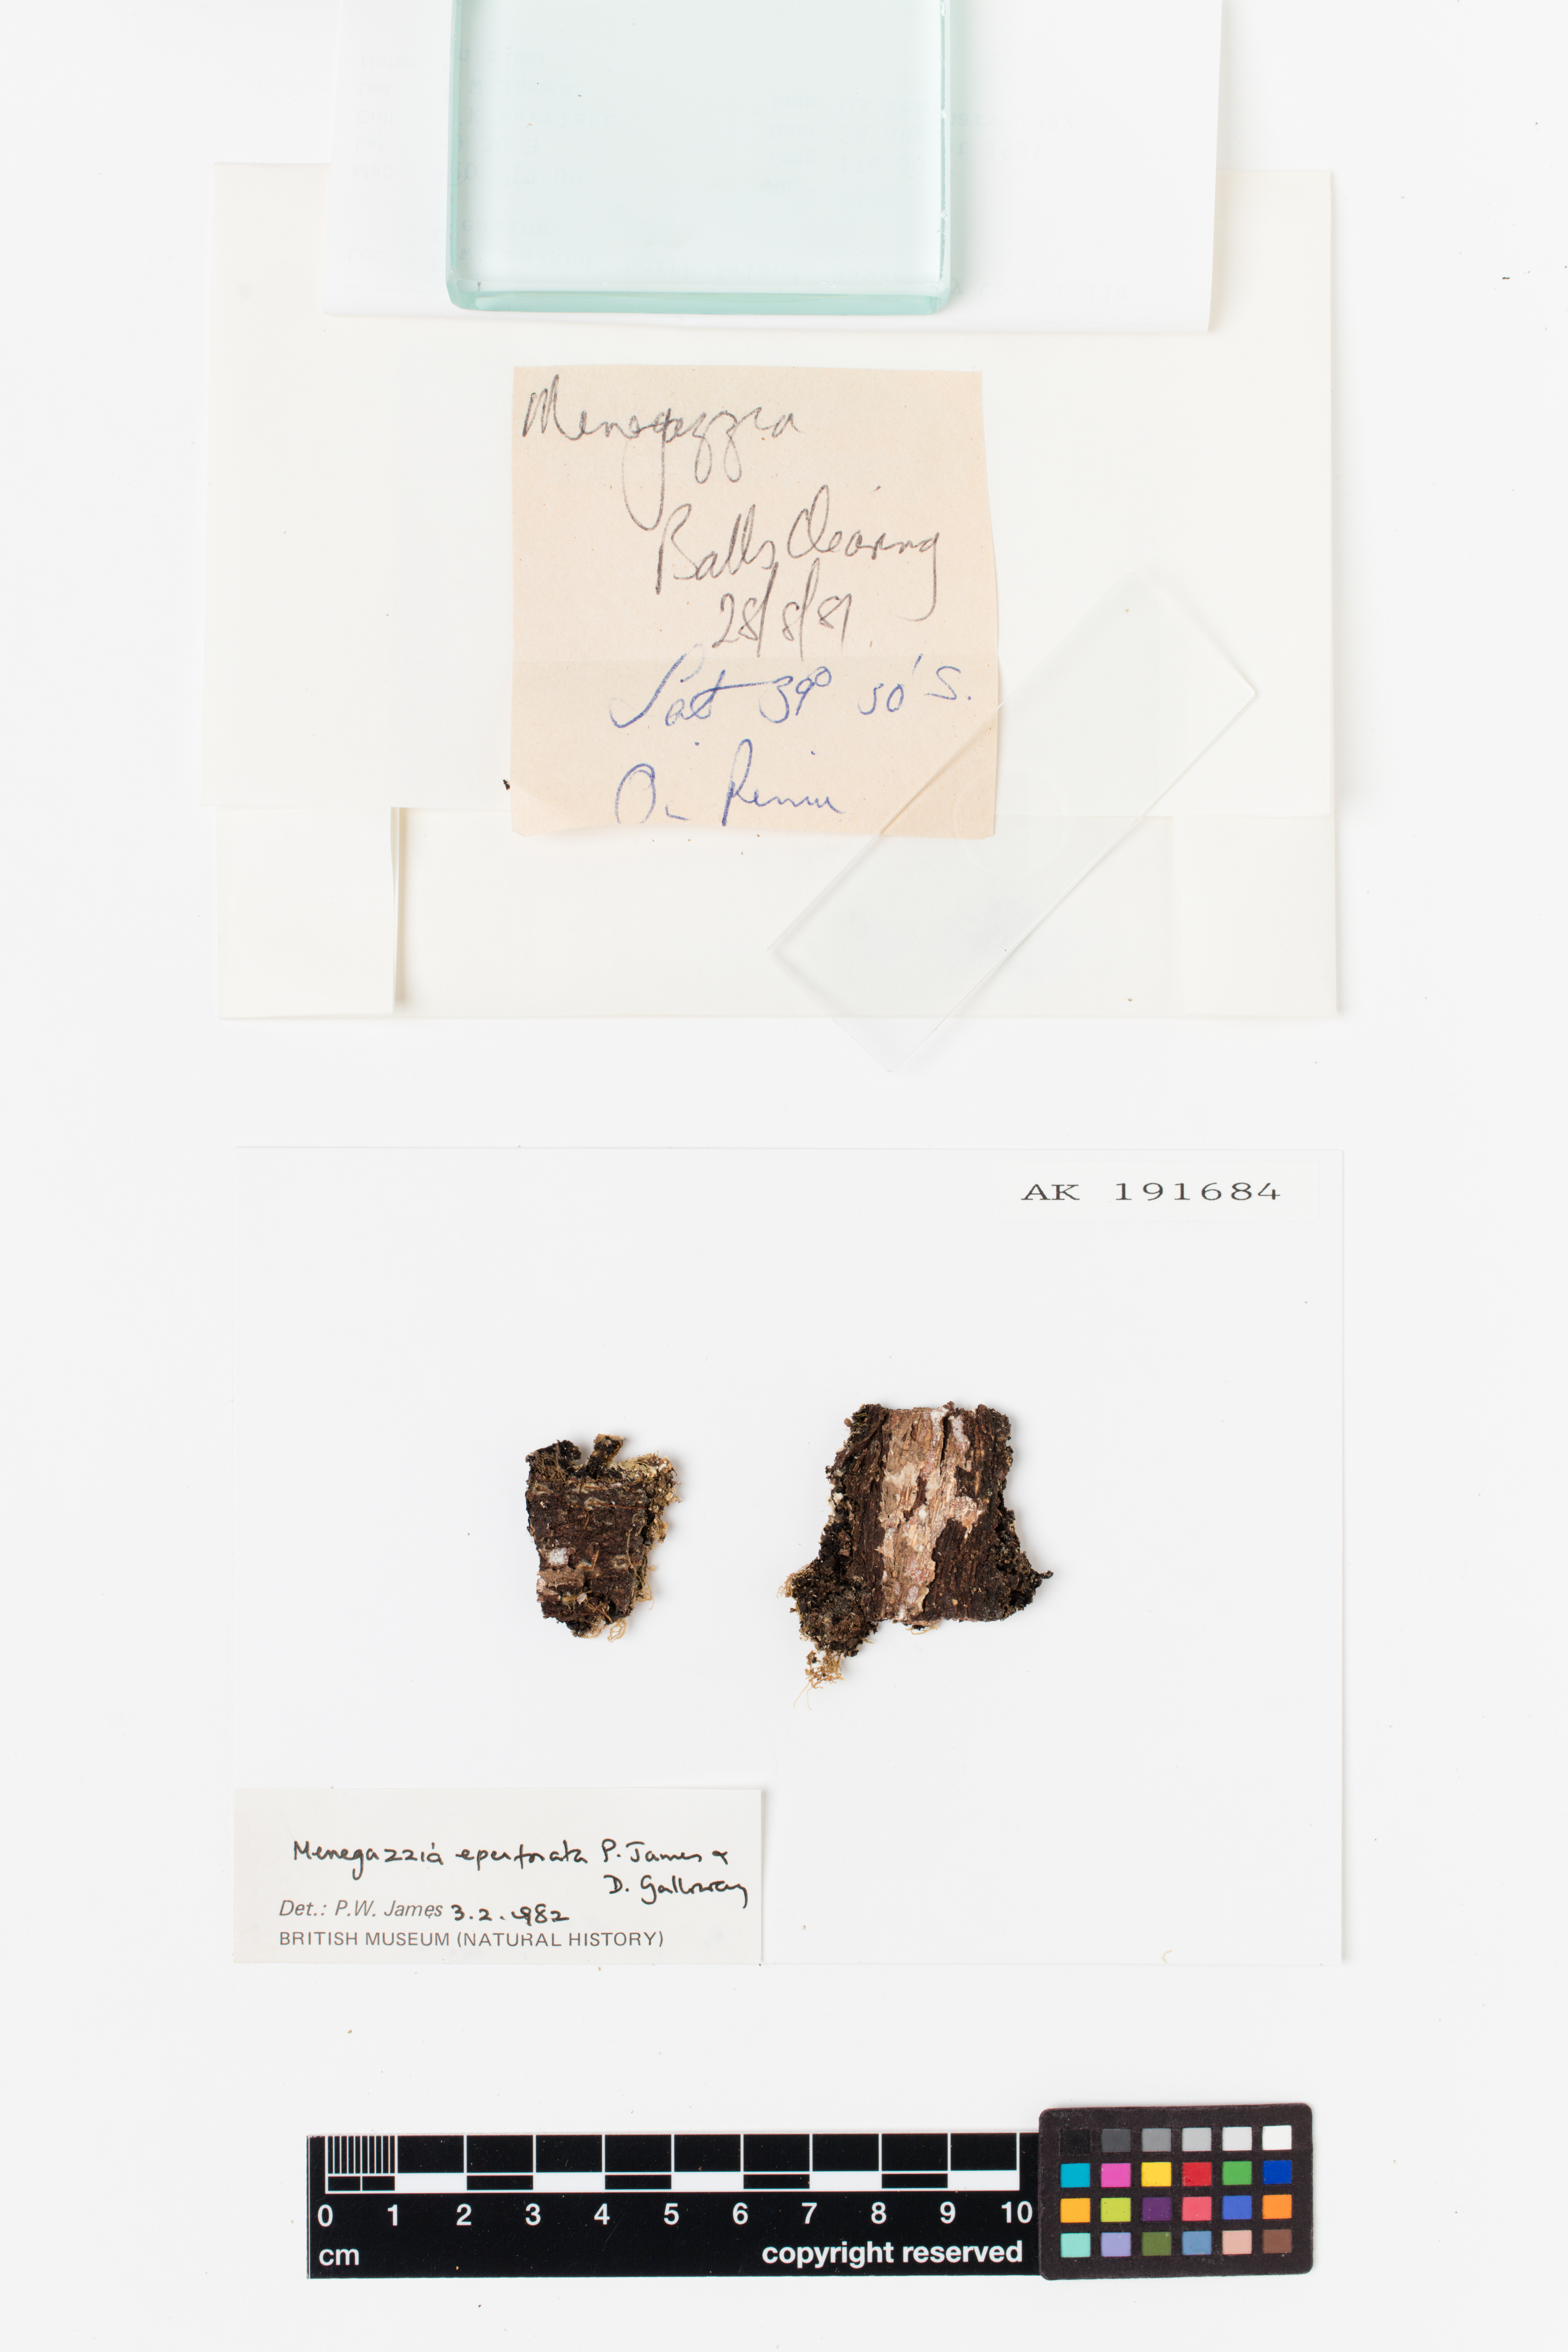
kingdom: Fungi
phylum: Ascomycota
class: Lecanoromycetes
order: Lecanorales
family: Parmeliaceae
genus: Menegazzia
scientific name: Menegazzia eperforata
